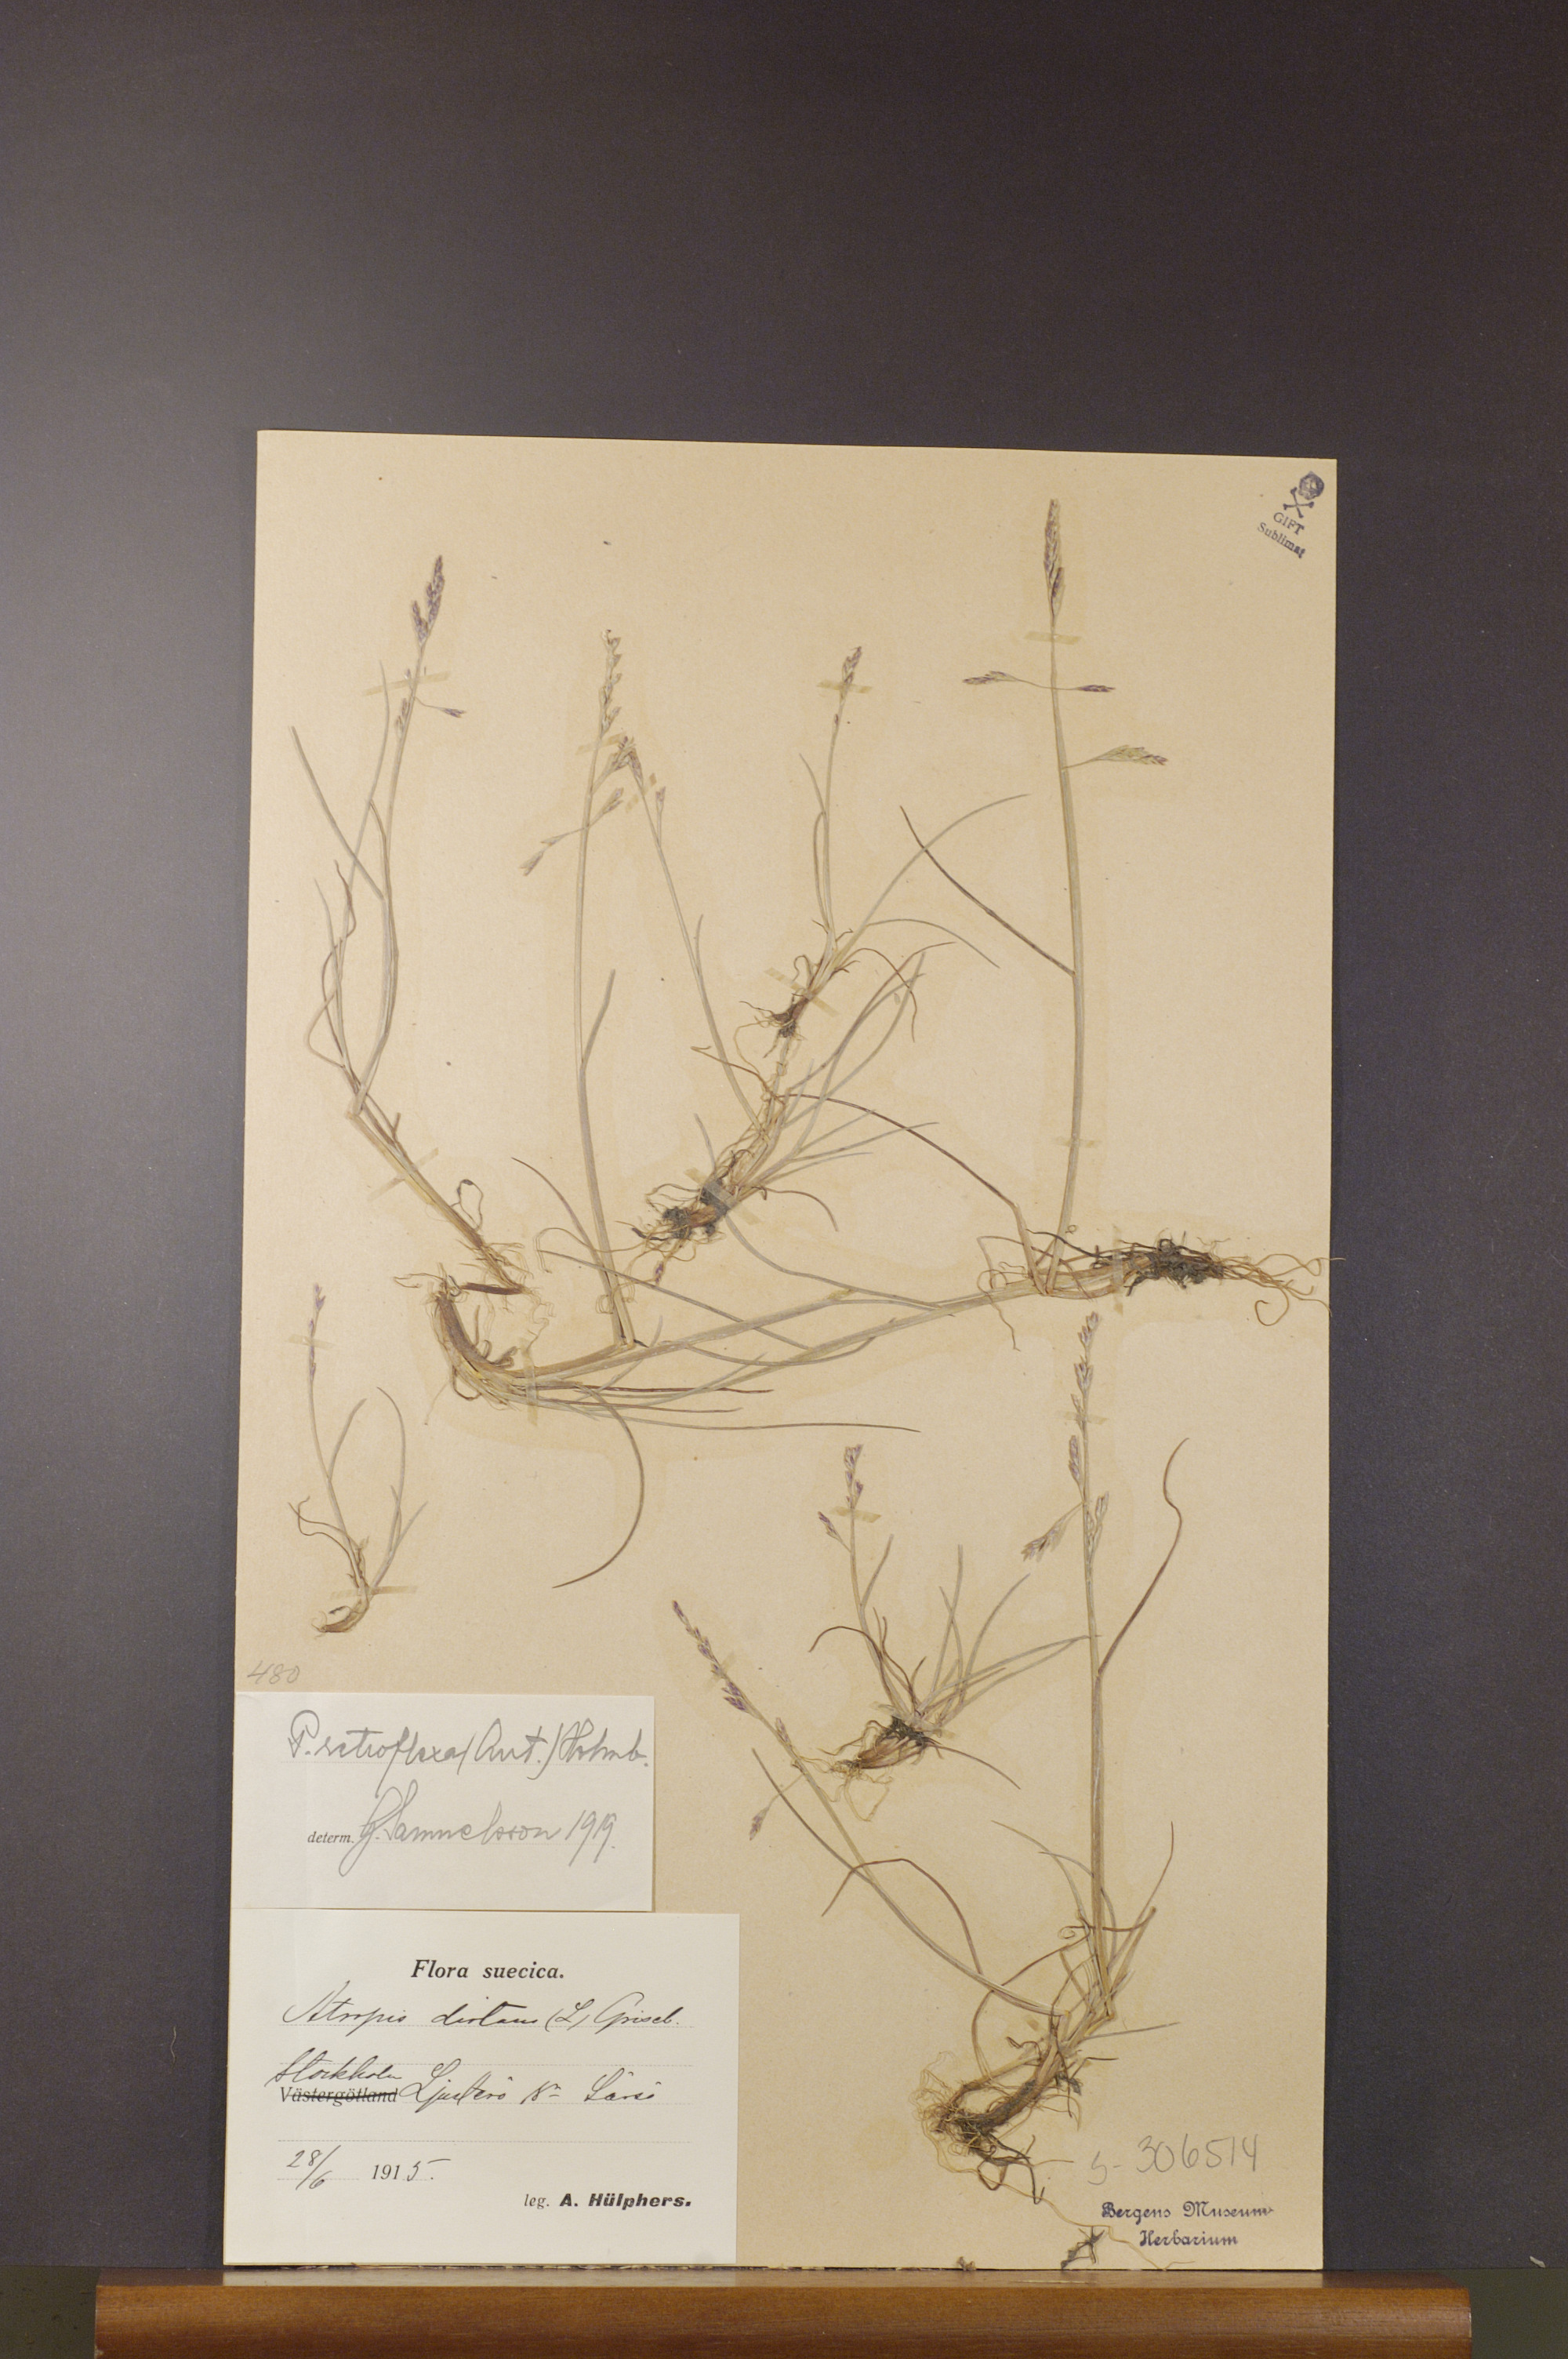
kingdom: Plantae
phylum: Tracheophyta
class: Liliopsida
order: Poales
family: Poaceae
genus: Puccinellia
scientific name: Puccinellia distans
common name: Weeping alkaligrass
